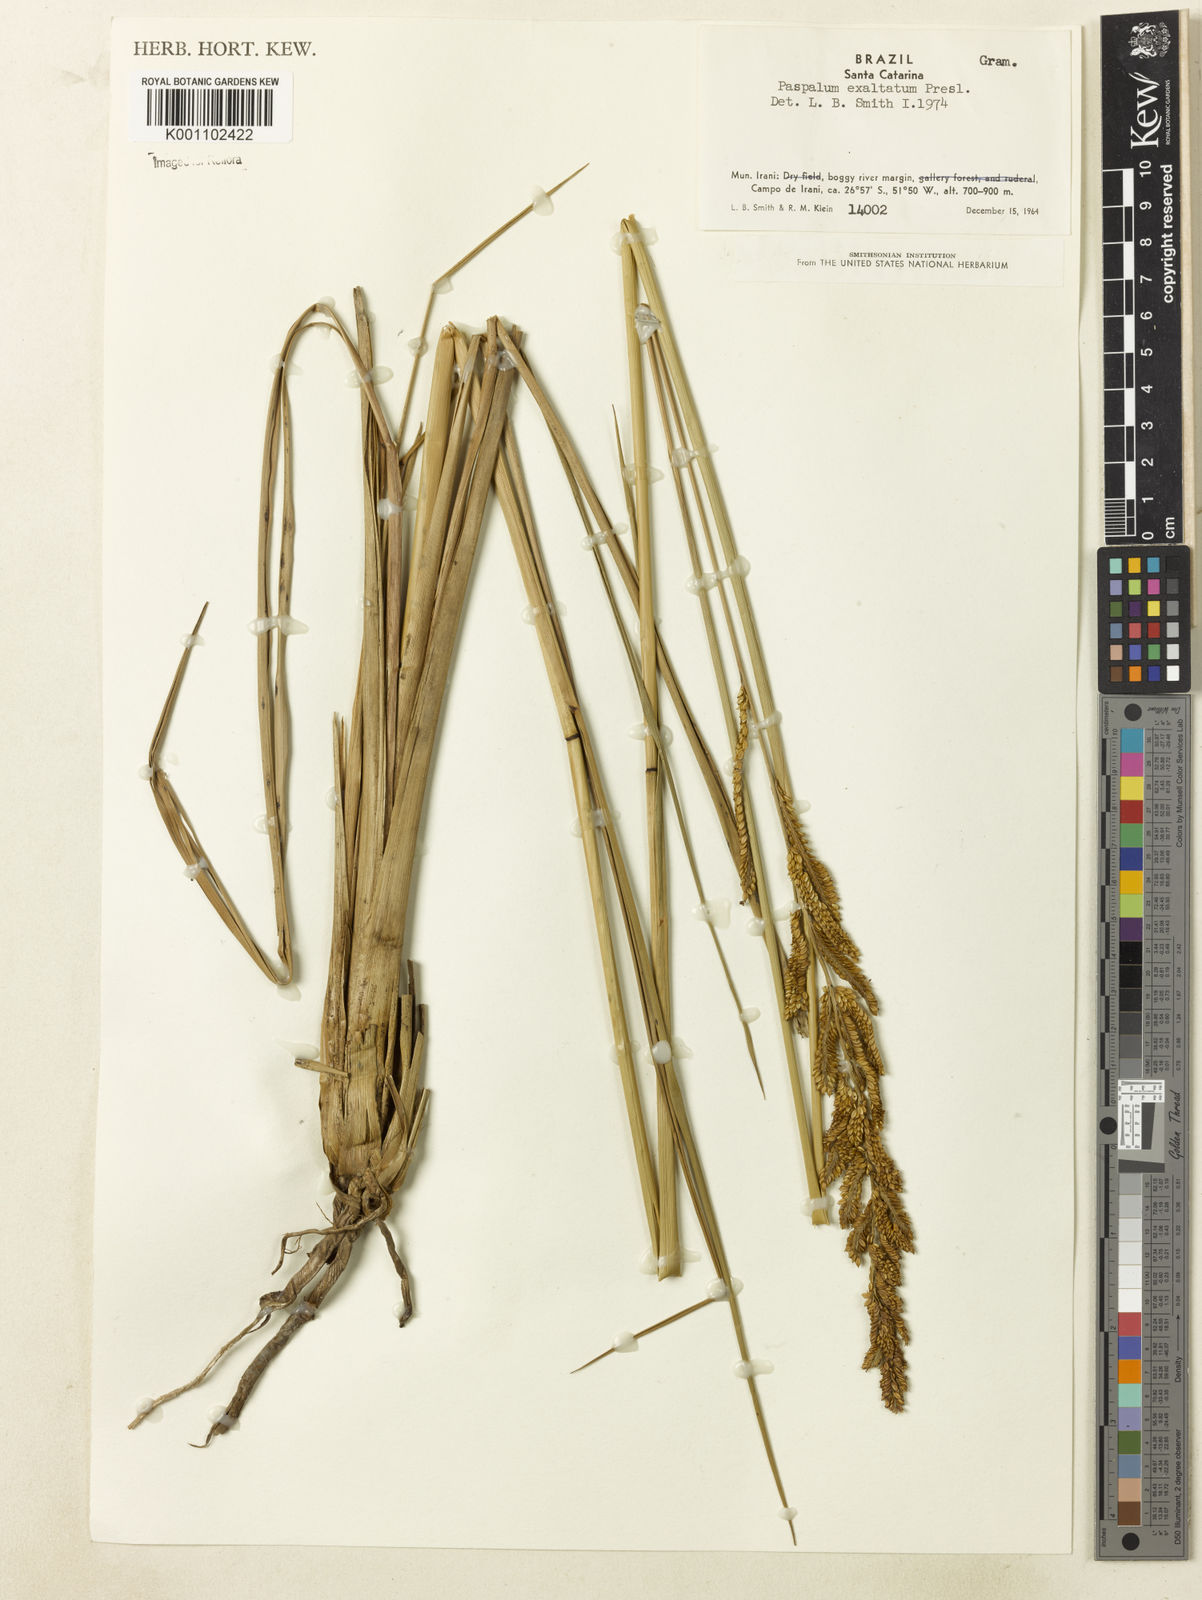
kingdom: Plantae
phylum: Tracheophyta
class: Liliopsida
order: Poales
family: Poaceae
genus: Paspalum
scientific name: Paspalum exaltatum
